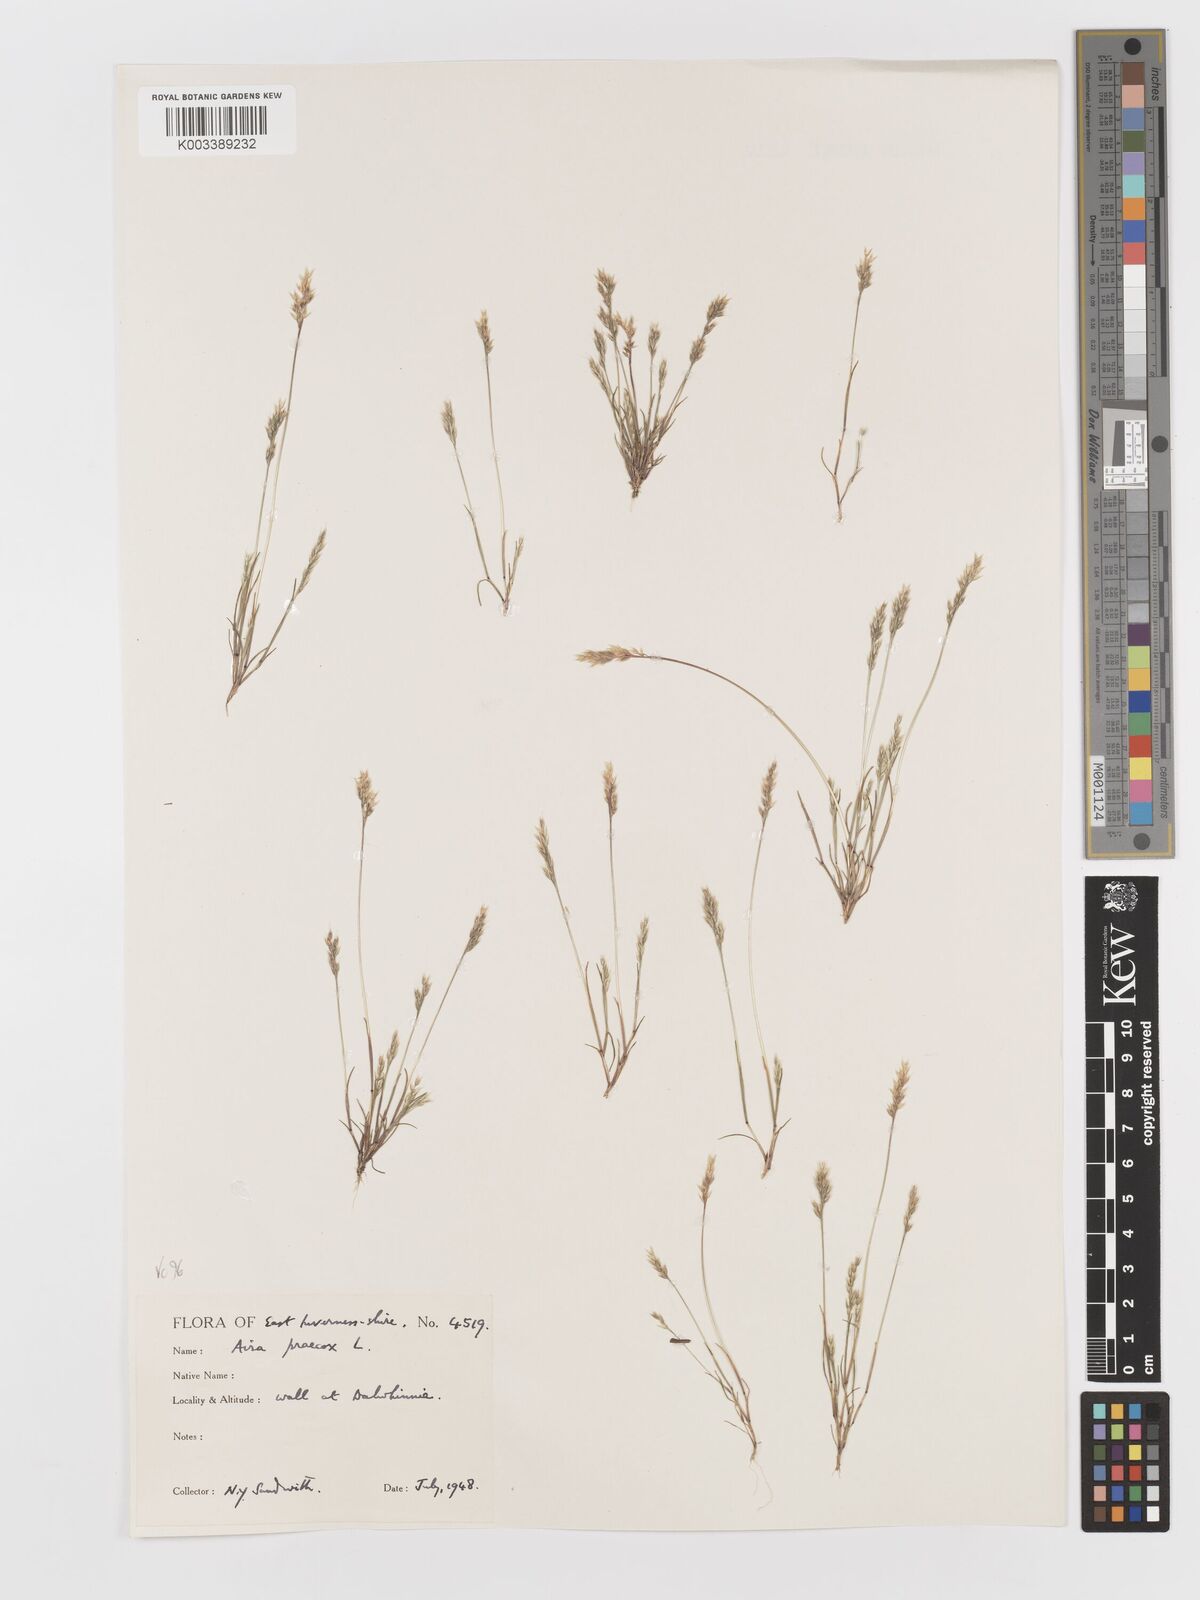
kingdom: Plantae
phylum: Tracheophyta
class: Liliopsida
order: Poales
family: Poaceae
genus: Aira
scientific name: Aira praecox
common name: Early hair-grass
